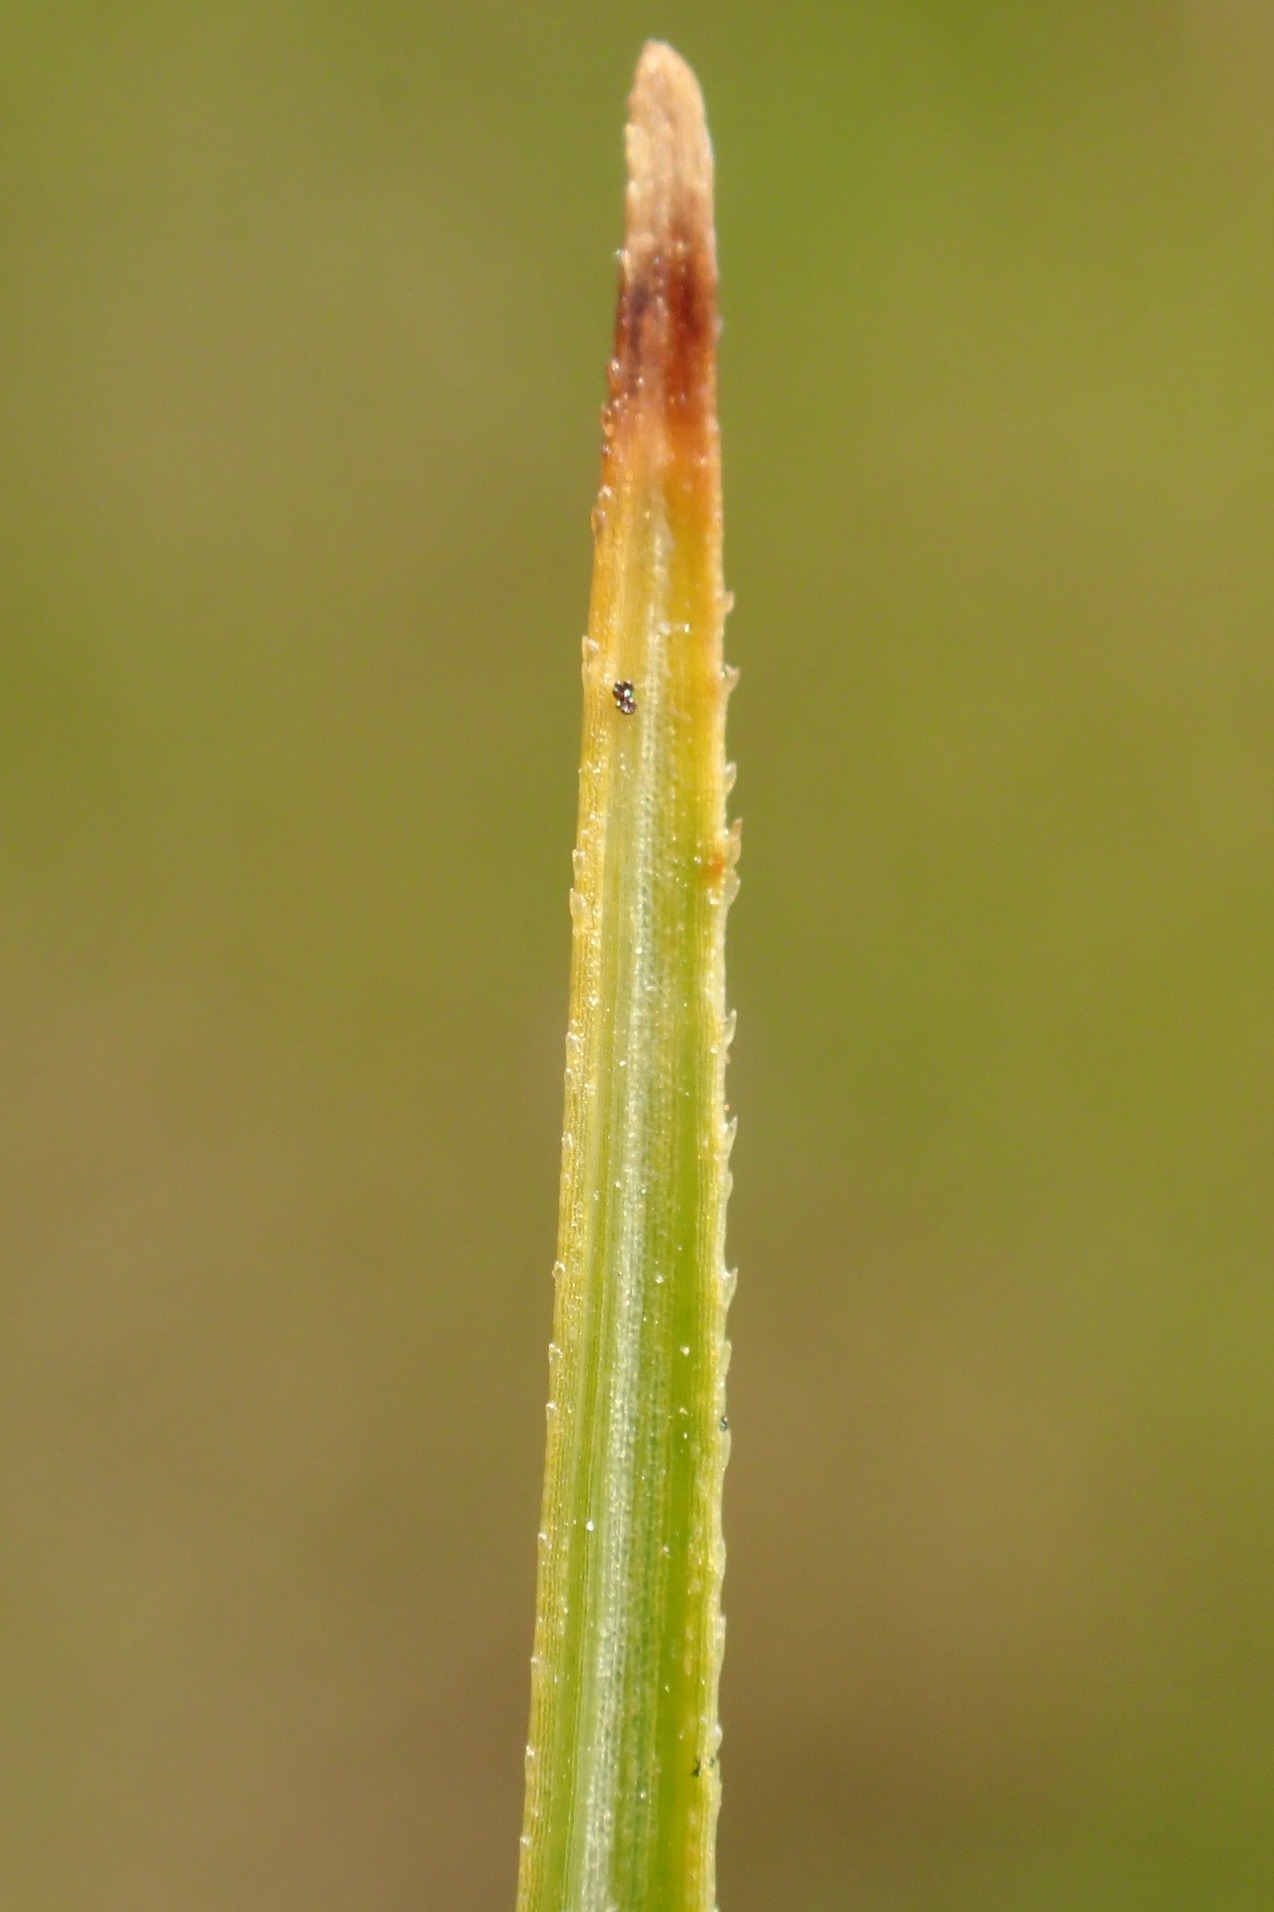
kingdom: Plantae
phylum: Tracheophyta
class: Liliopsida
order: Poales
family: Cyperaceae
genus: Blysmus
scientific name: Blysmus compressus
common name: Fladtrykt kogleaks
